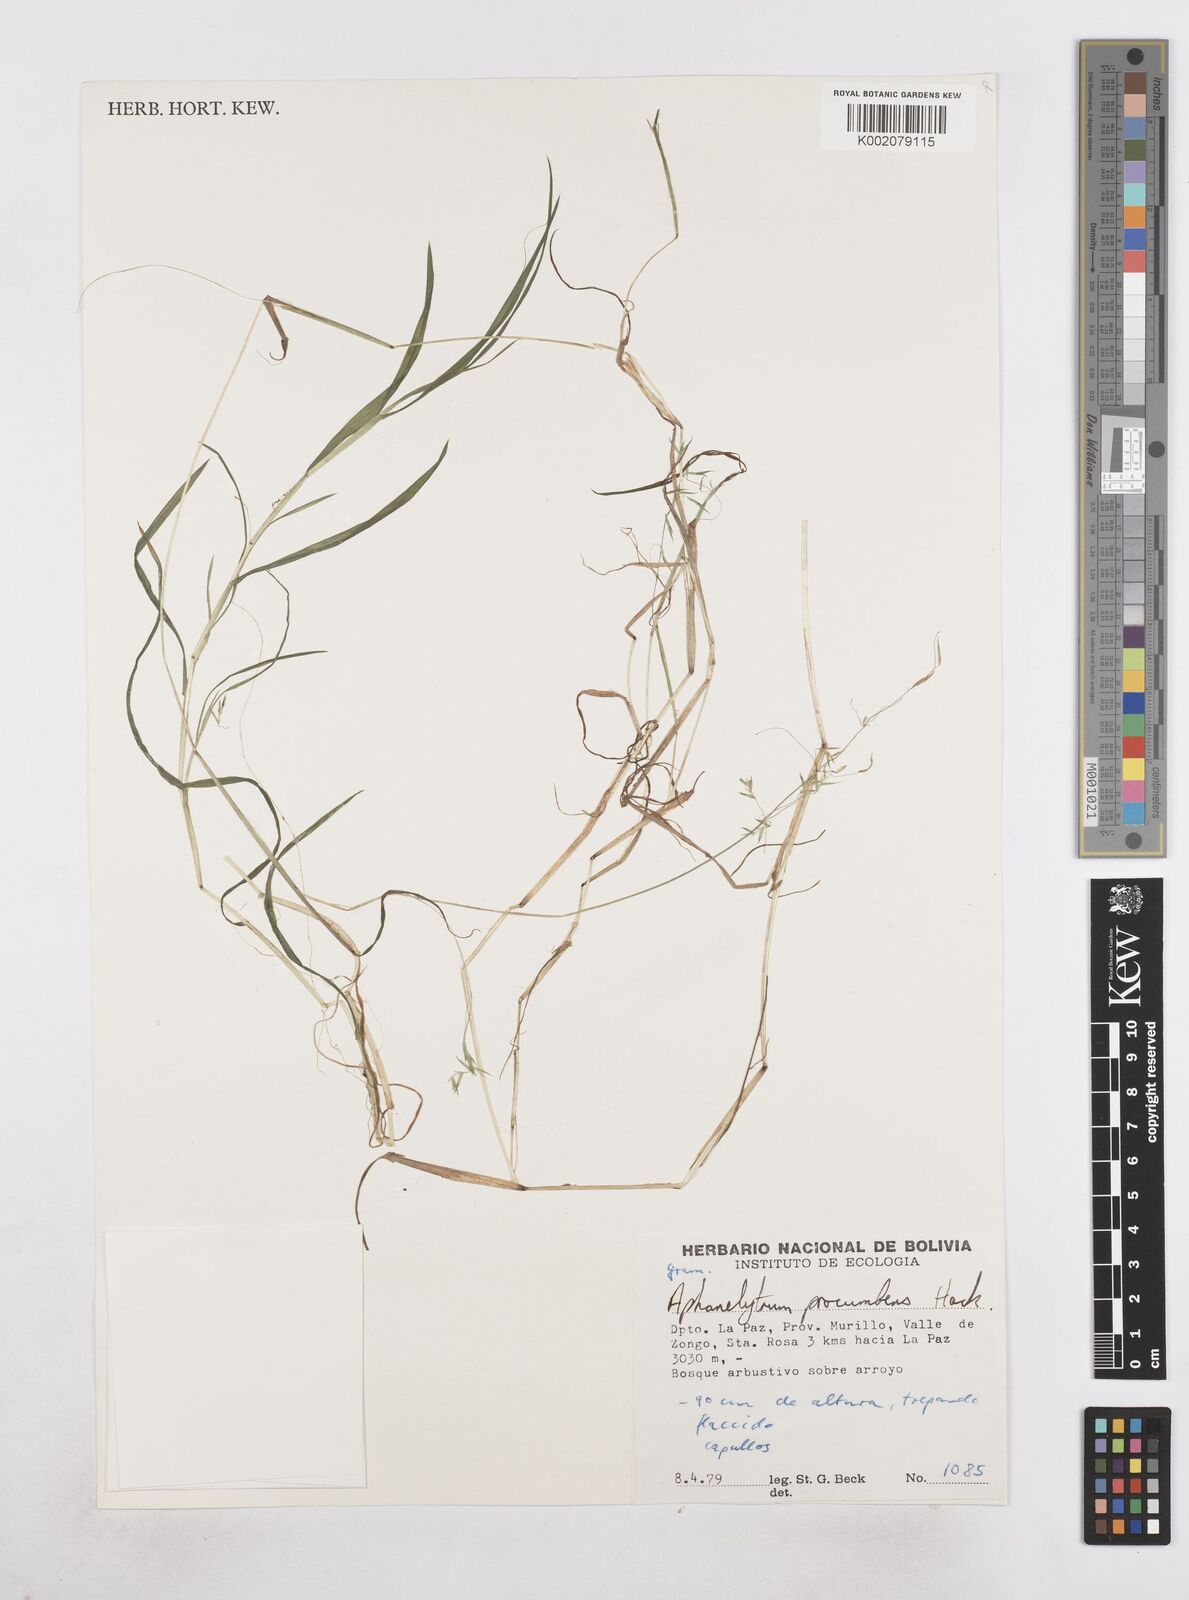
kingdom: Plantae
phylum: Tracheophyta
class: Liliopsida
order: Poales
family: Poaceae
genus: Poa
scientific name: Poa hitchcockiana
